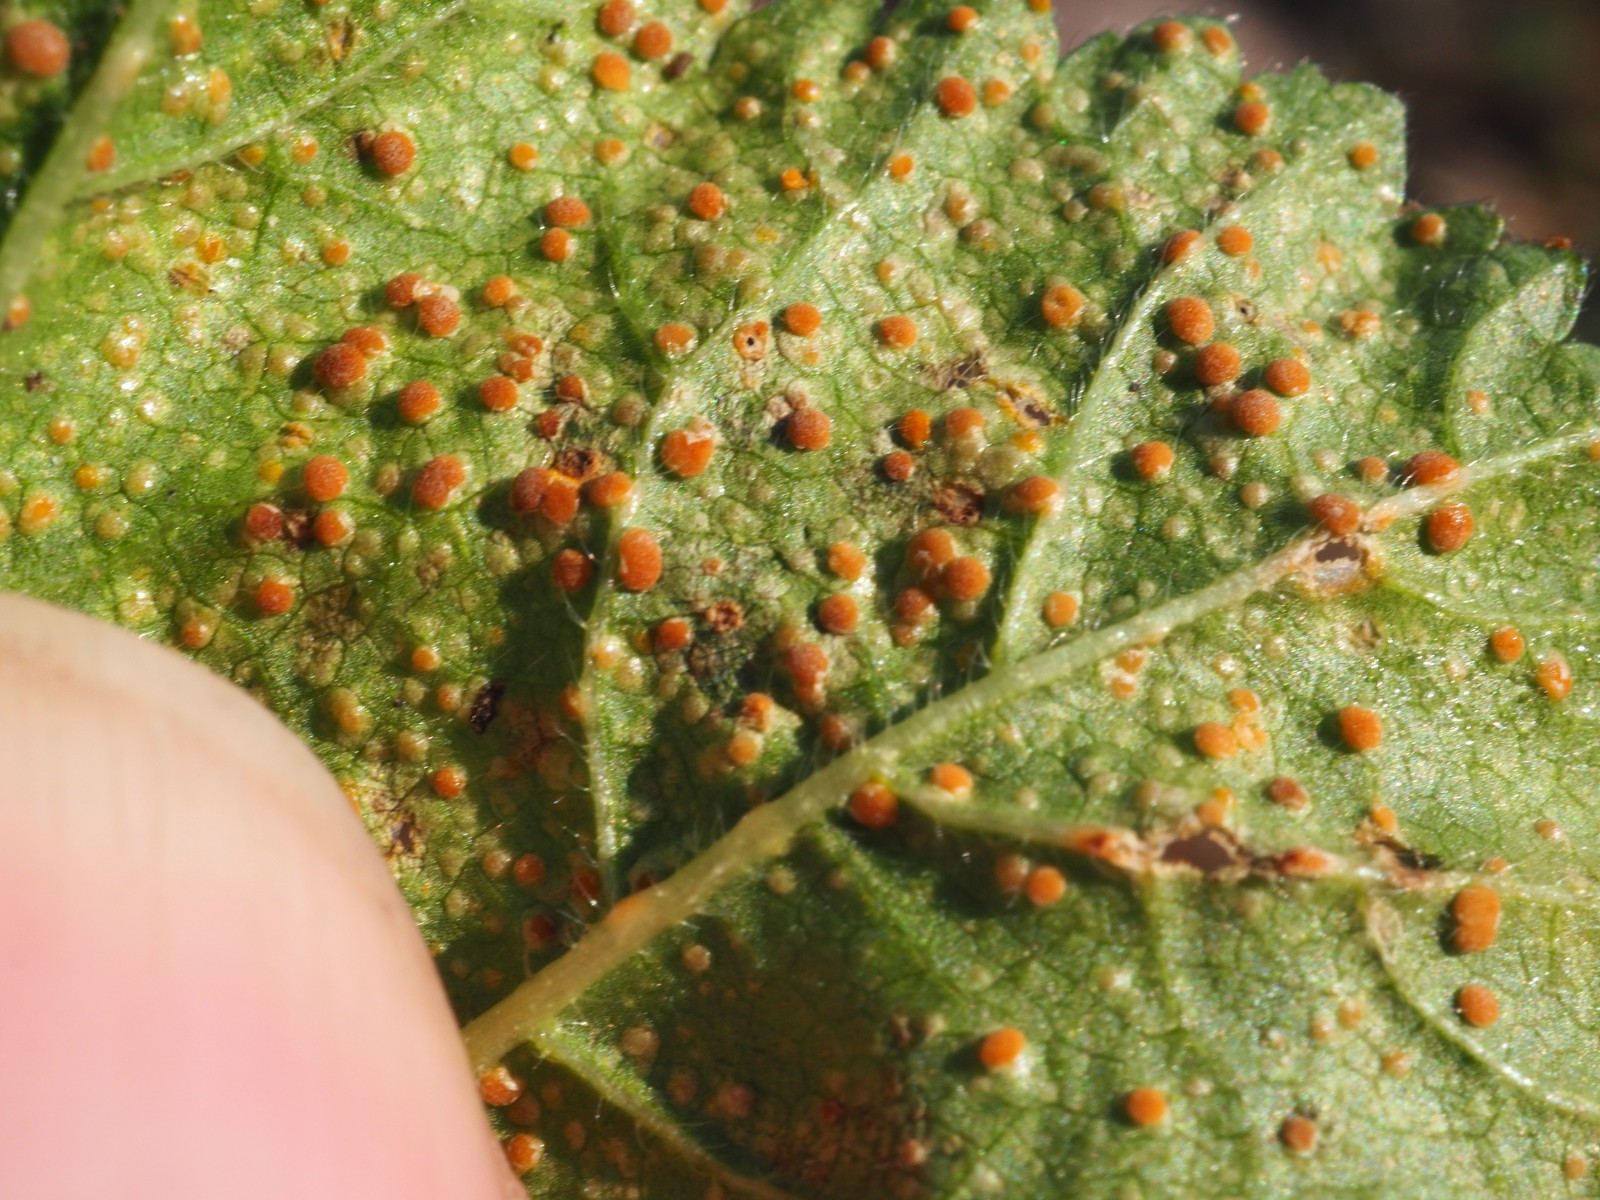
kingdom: Fungi
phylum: Basidiomycota
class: Pucciniomycetes
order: Pucciniales
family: Pucciniaceae
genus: Puccinia
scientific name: Puccinia malvacearum
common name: stokrose-tvecellerust
